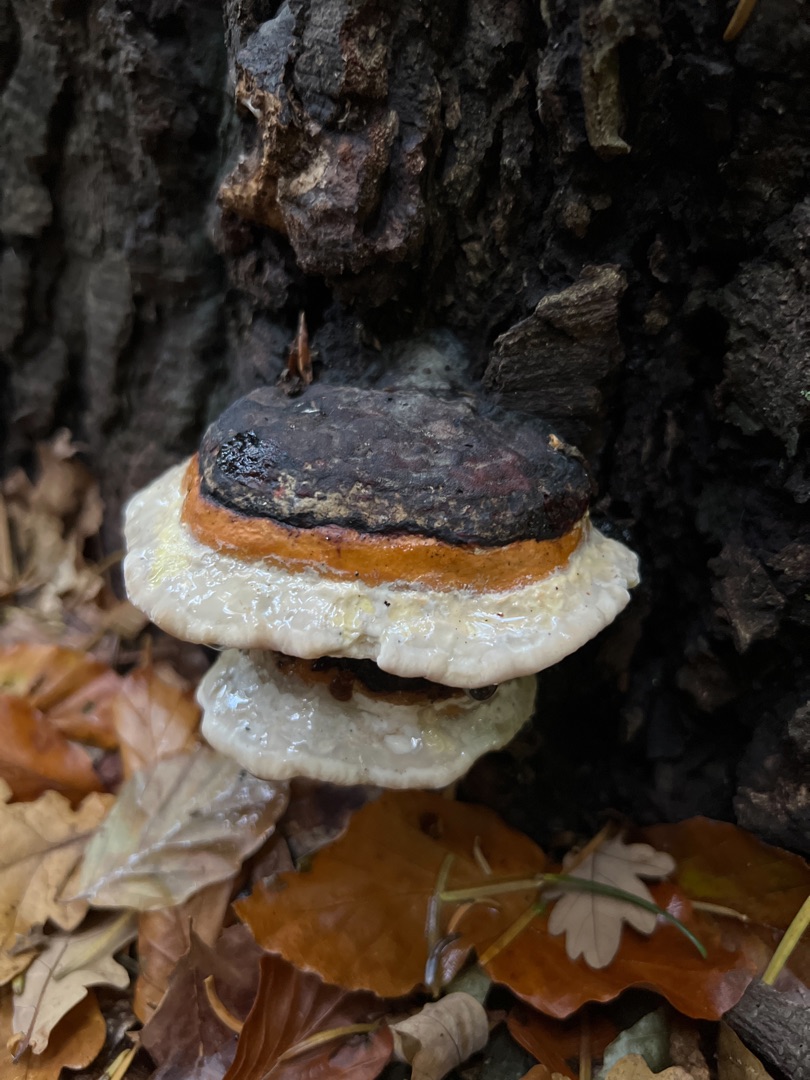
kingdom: Fungi
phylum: Basidiomycota
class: Agaricomycetes
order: Polyporales
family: Fomitopsidaceae
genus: Fomitopsis
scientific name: Fomitopsis pinicola
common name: Randbæltet hovporesvamp
